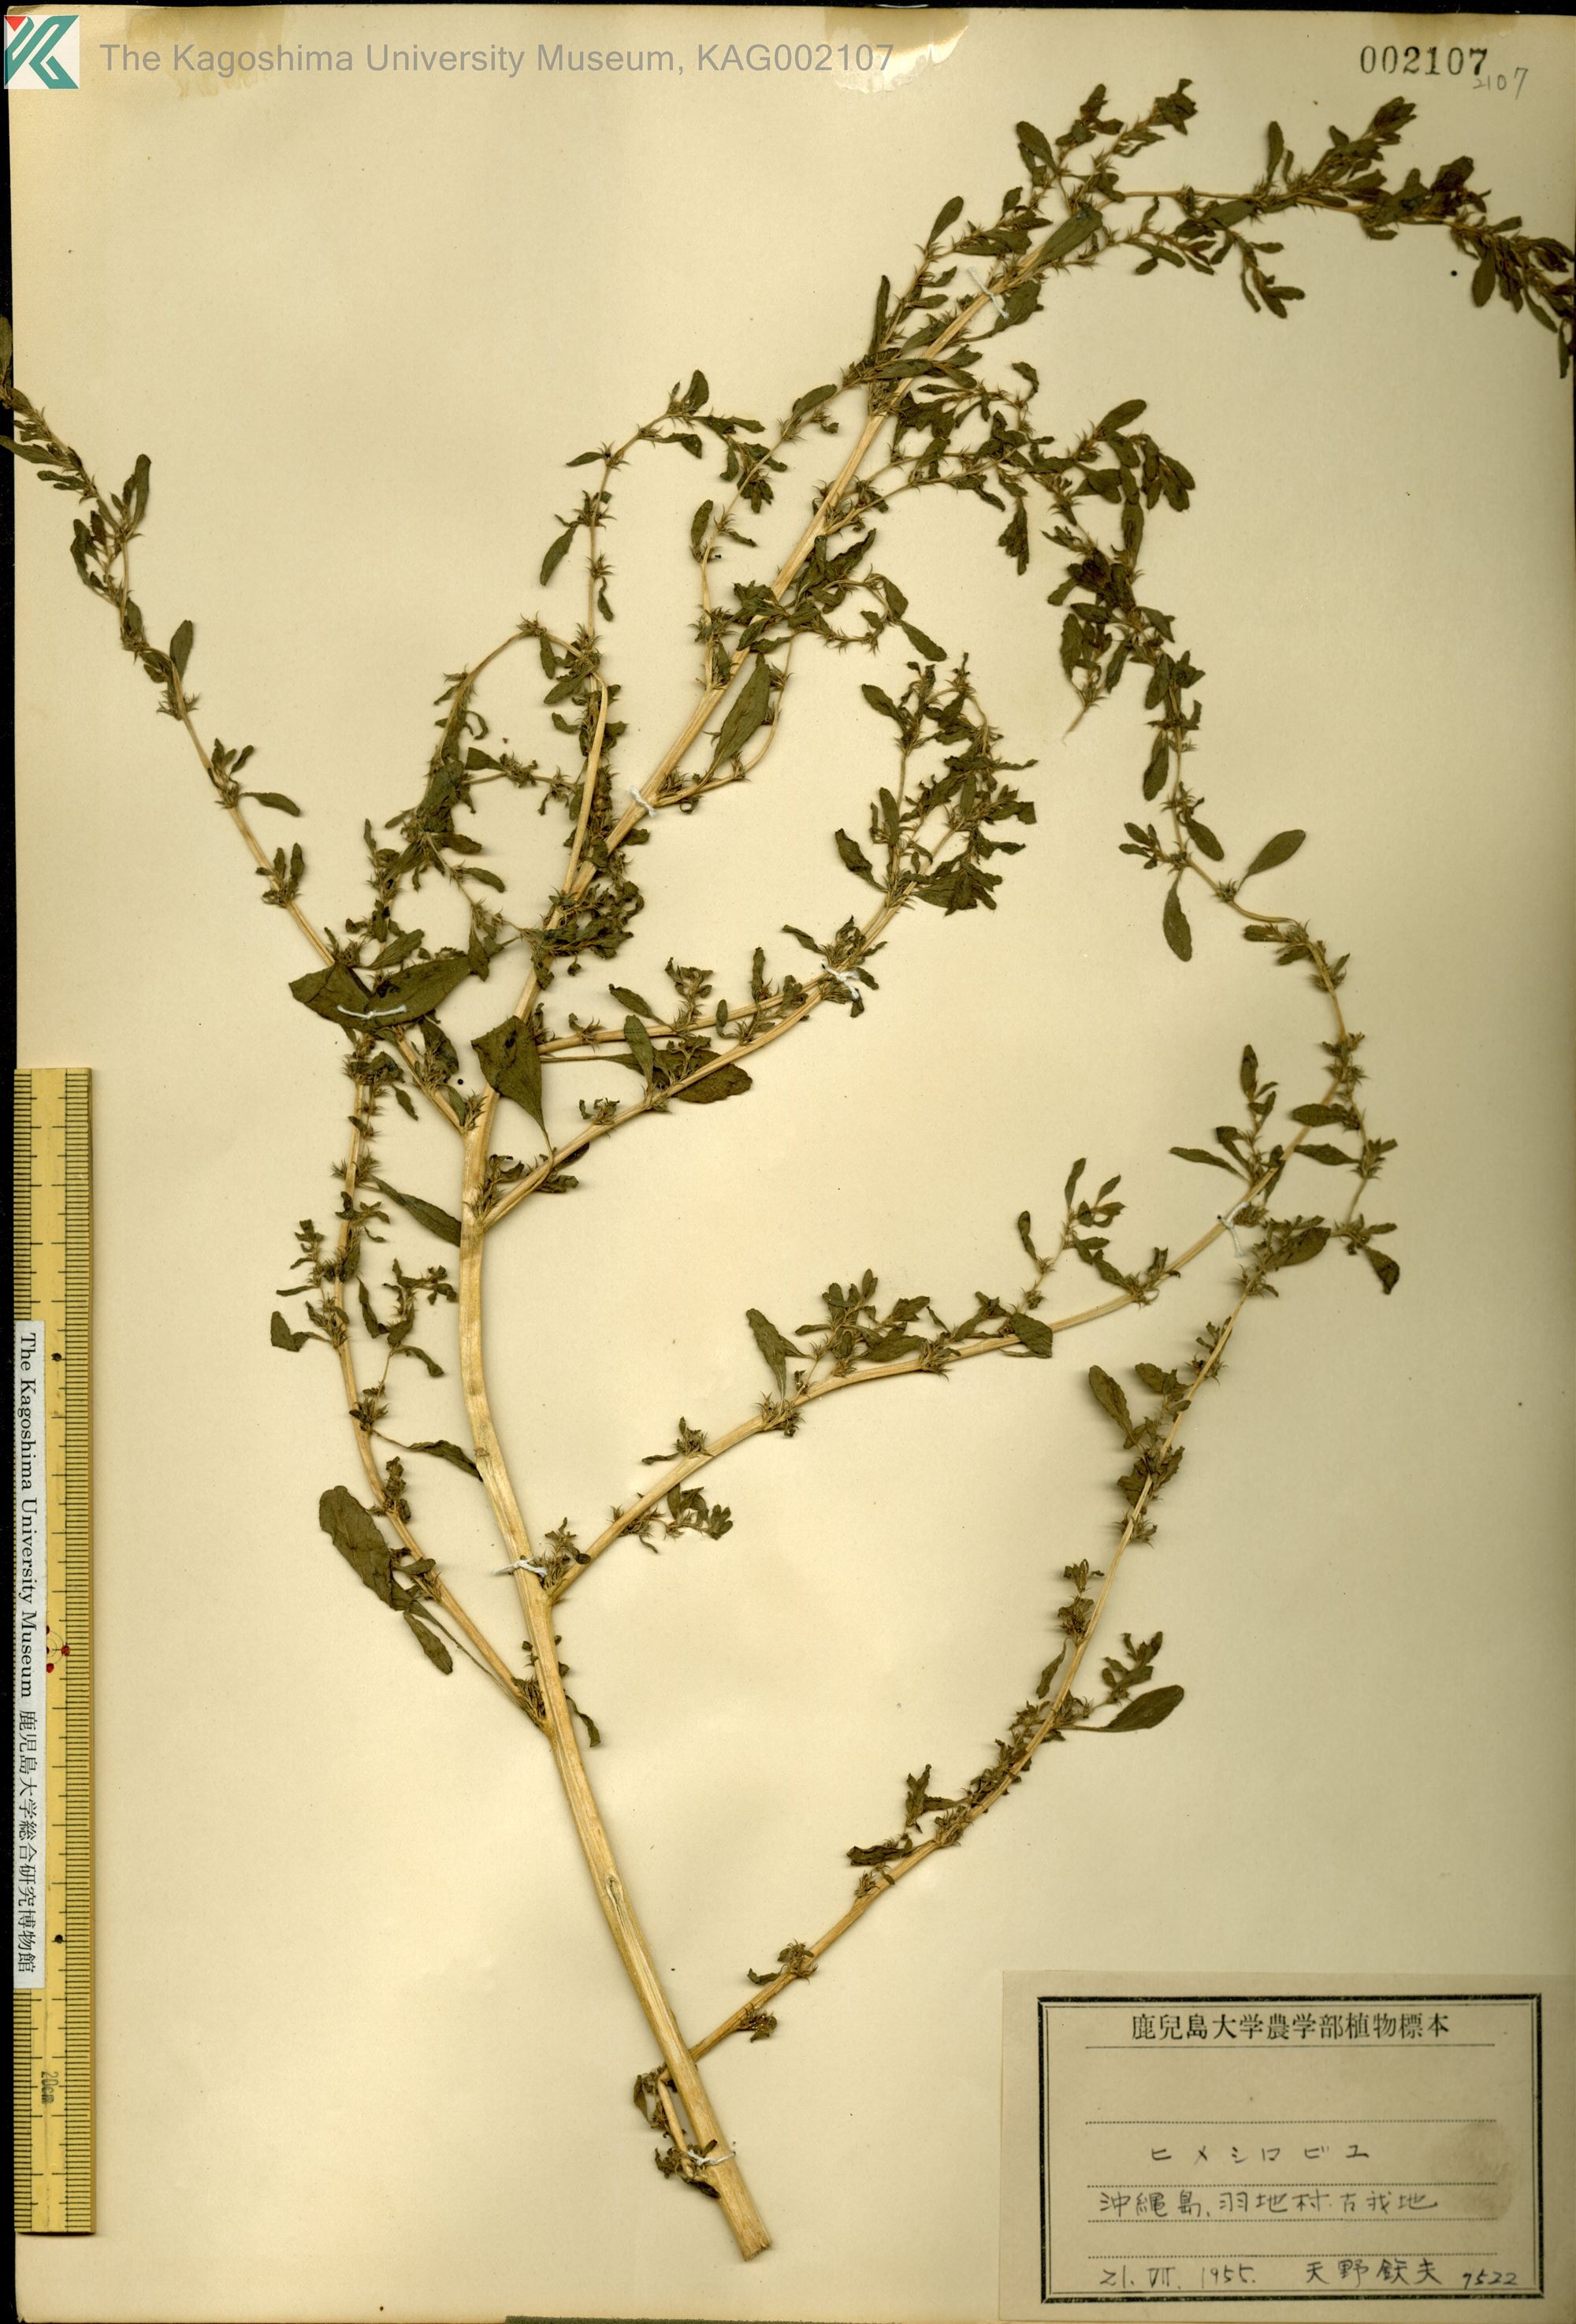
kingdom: Plantae
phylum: Tracheophyta
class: Magnoliopsida
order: Caryophyllales
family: Amaranthaceae
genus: Amaranthus
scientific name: Amaranthus albus
